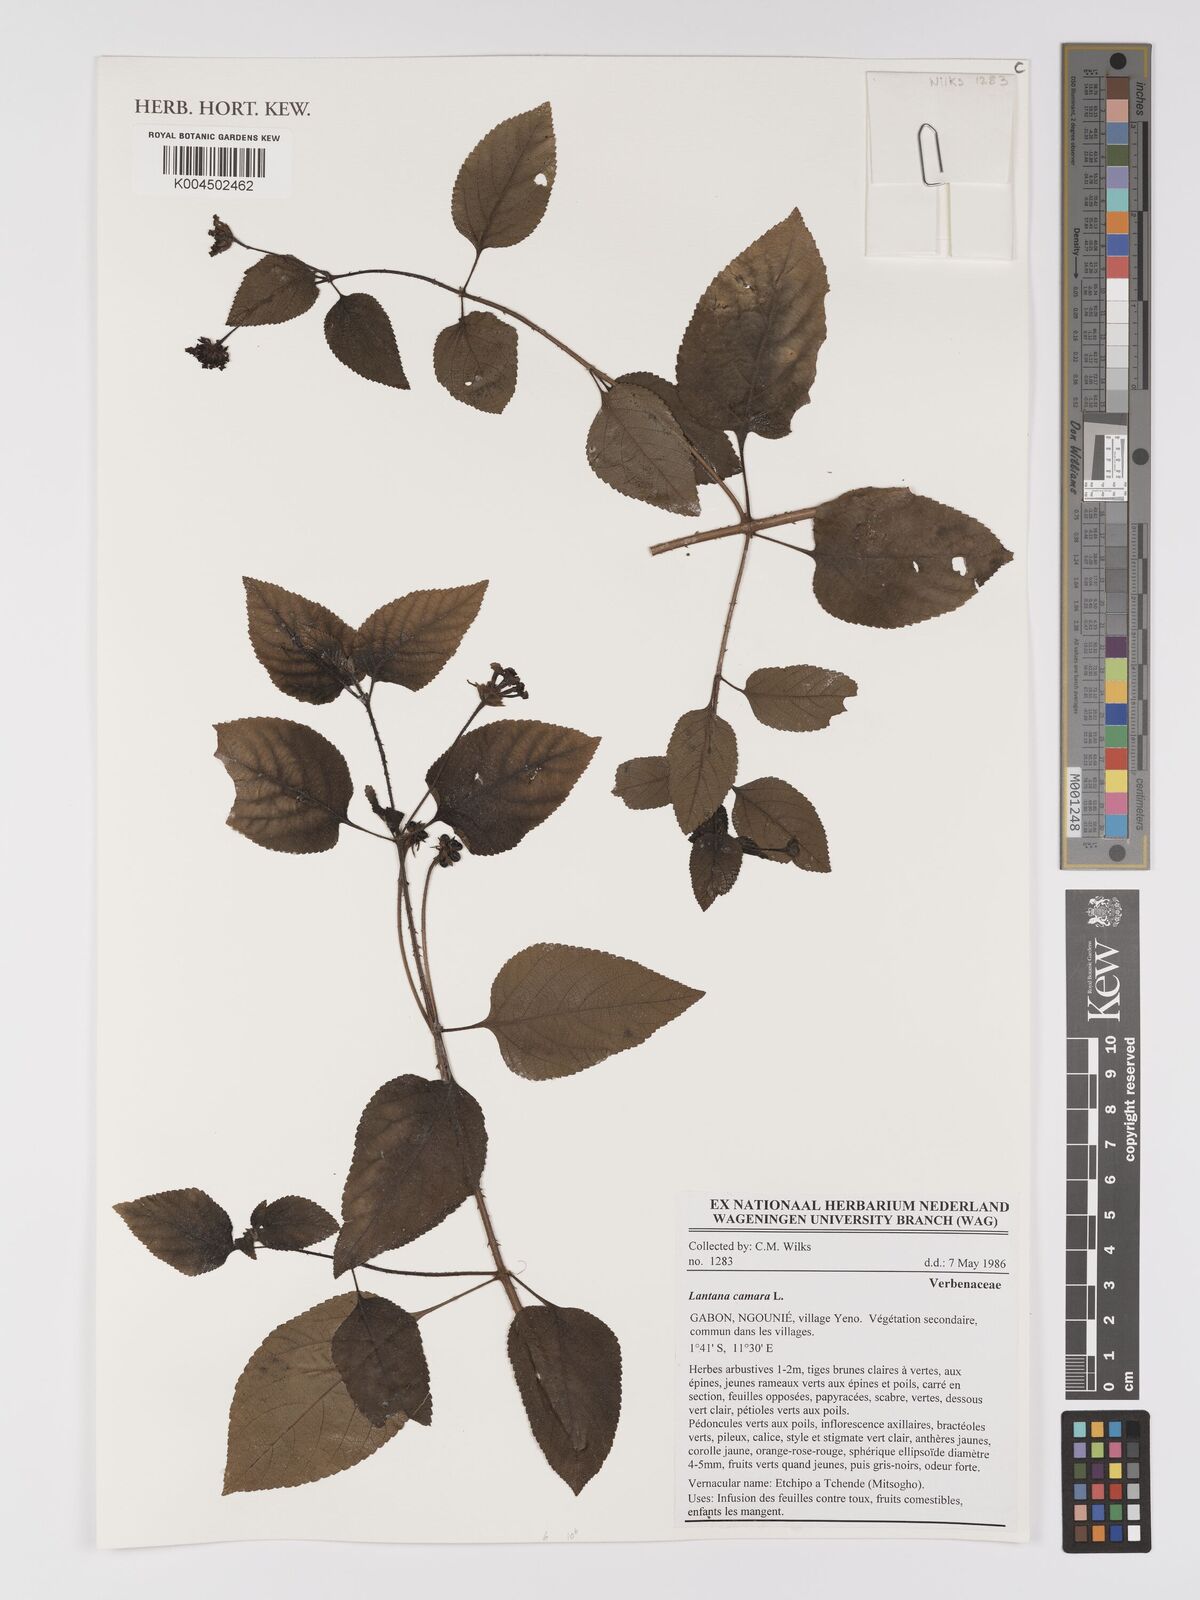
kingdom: Plantae
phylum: Tracheophyta
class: Magnoliopsida
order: Lamiales
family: Verbenaceae
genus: Lantana
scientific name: Lantana camara
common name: Lantana
